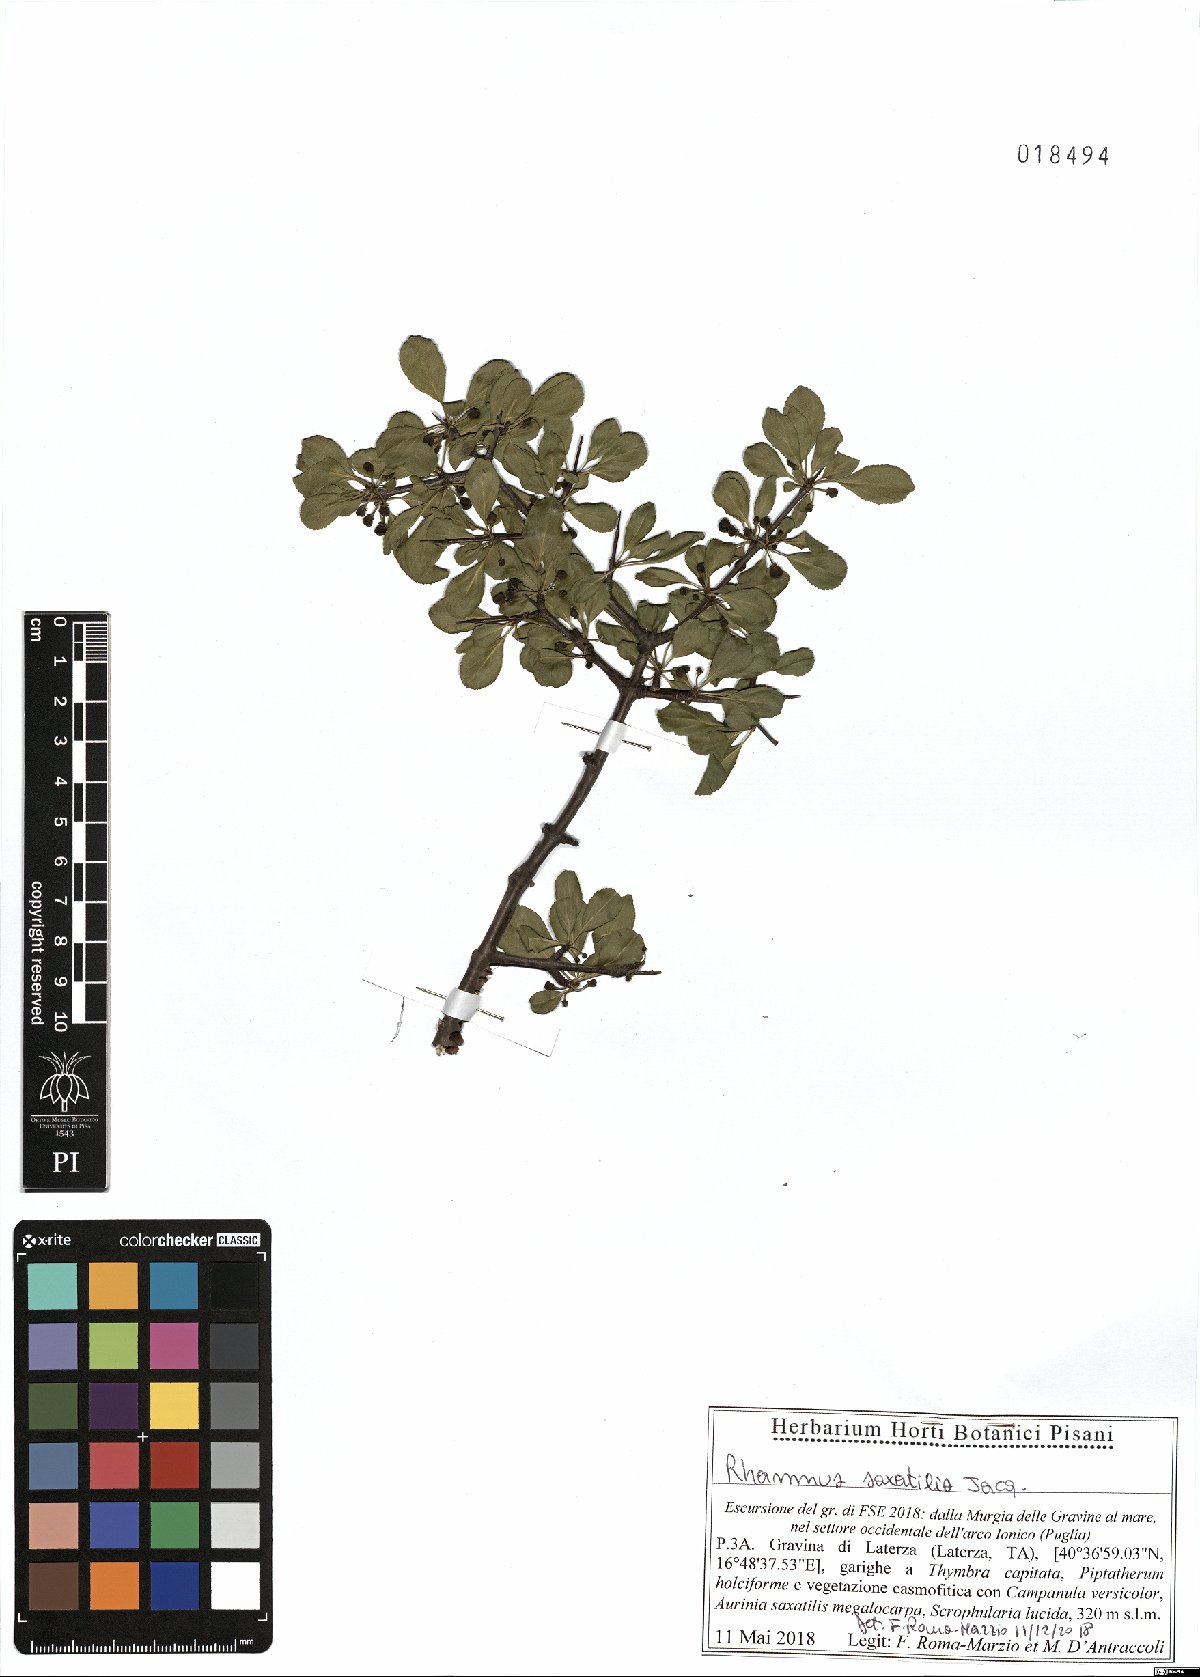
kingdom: Plantae
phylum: Tracheophyta
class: Magnoliopsida
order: Rosales
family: Rhamnaceae
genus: Rhamnus
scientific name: Rhamnus saxatilis
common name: Rock buckthorn
